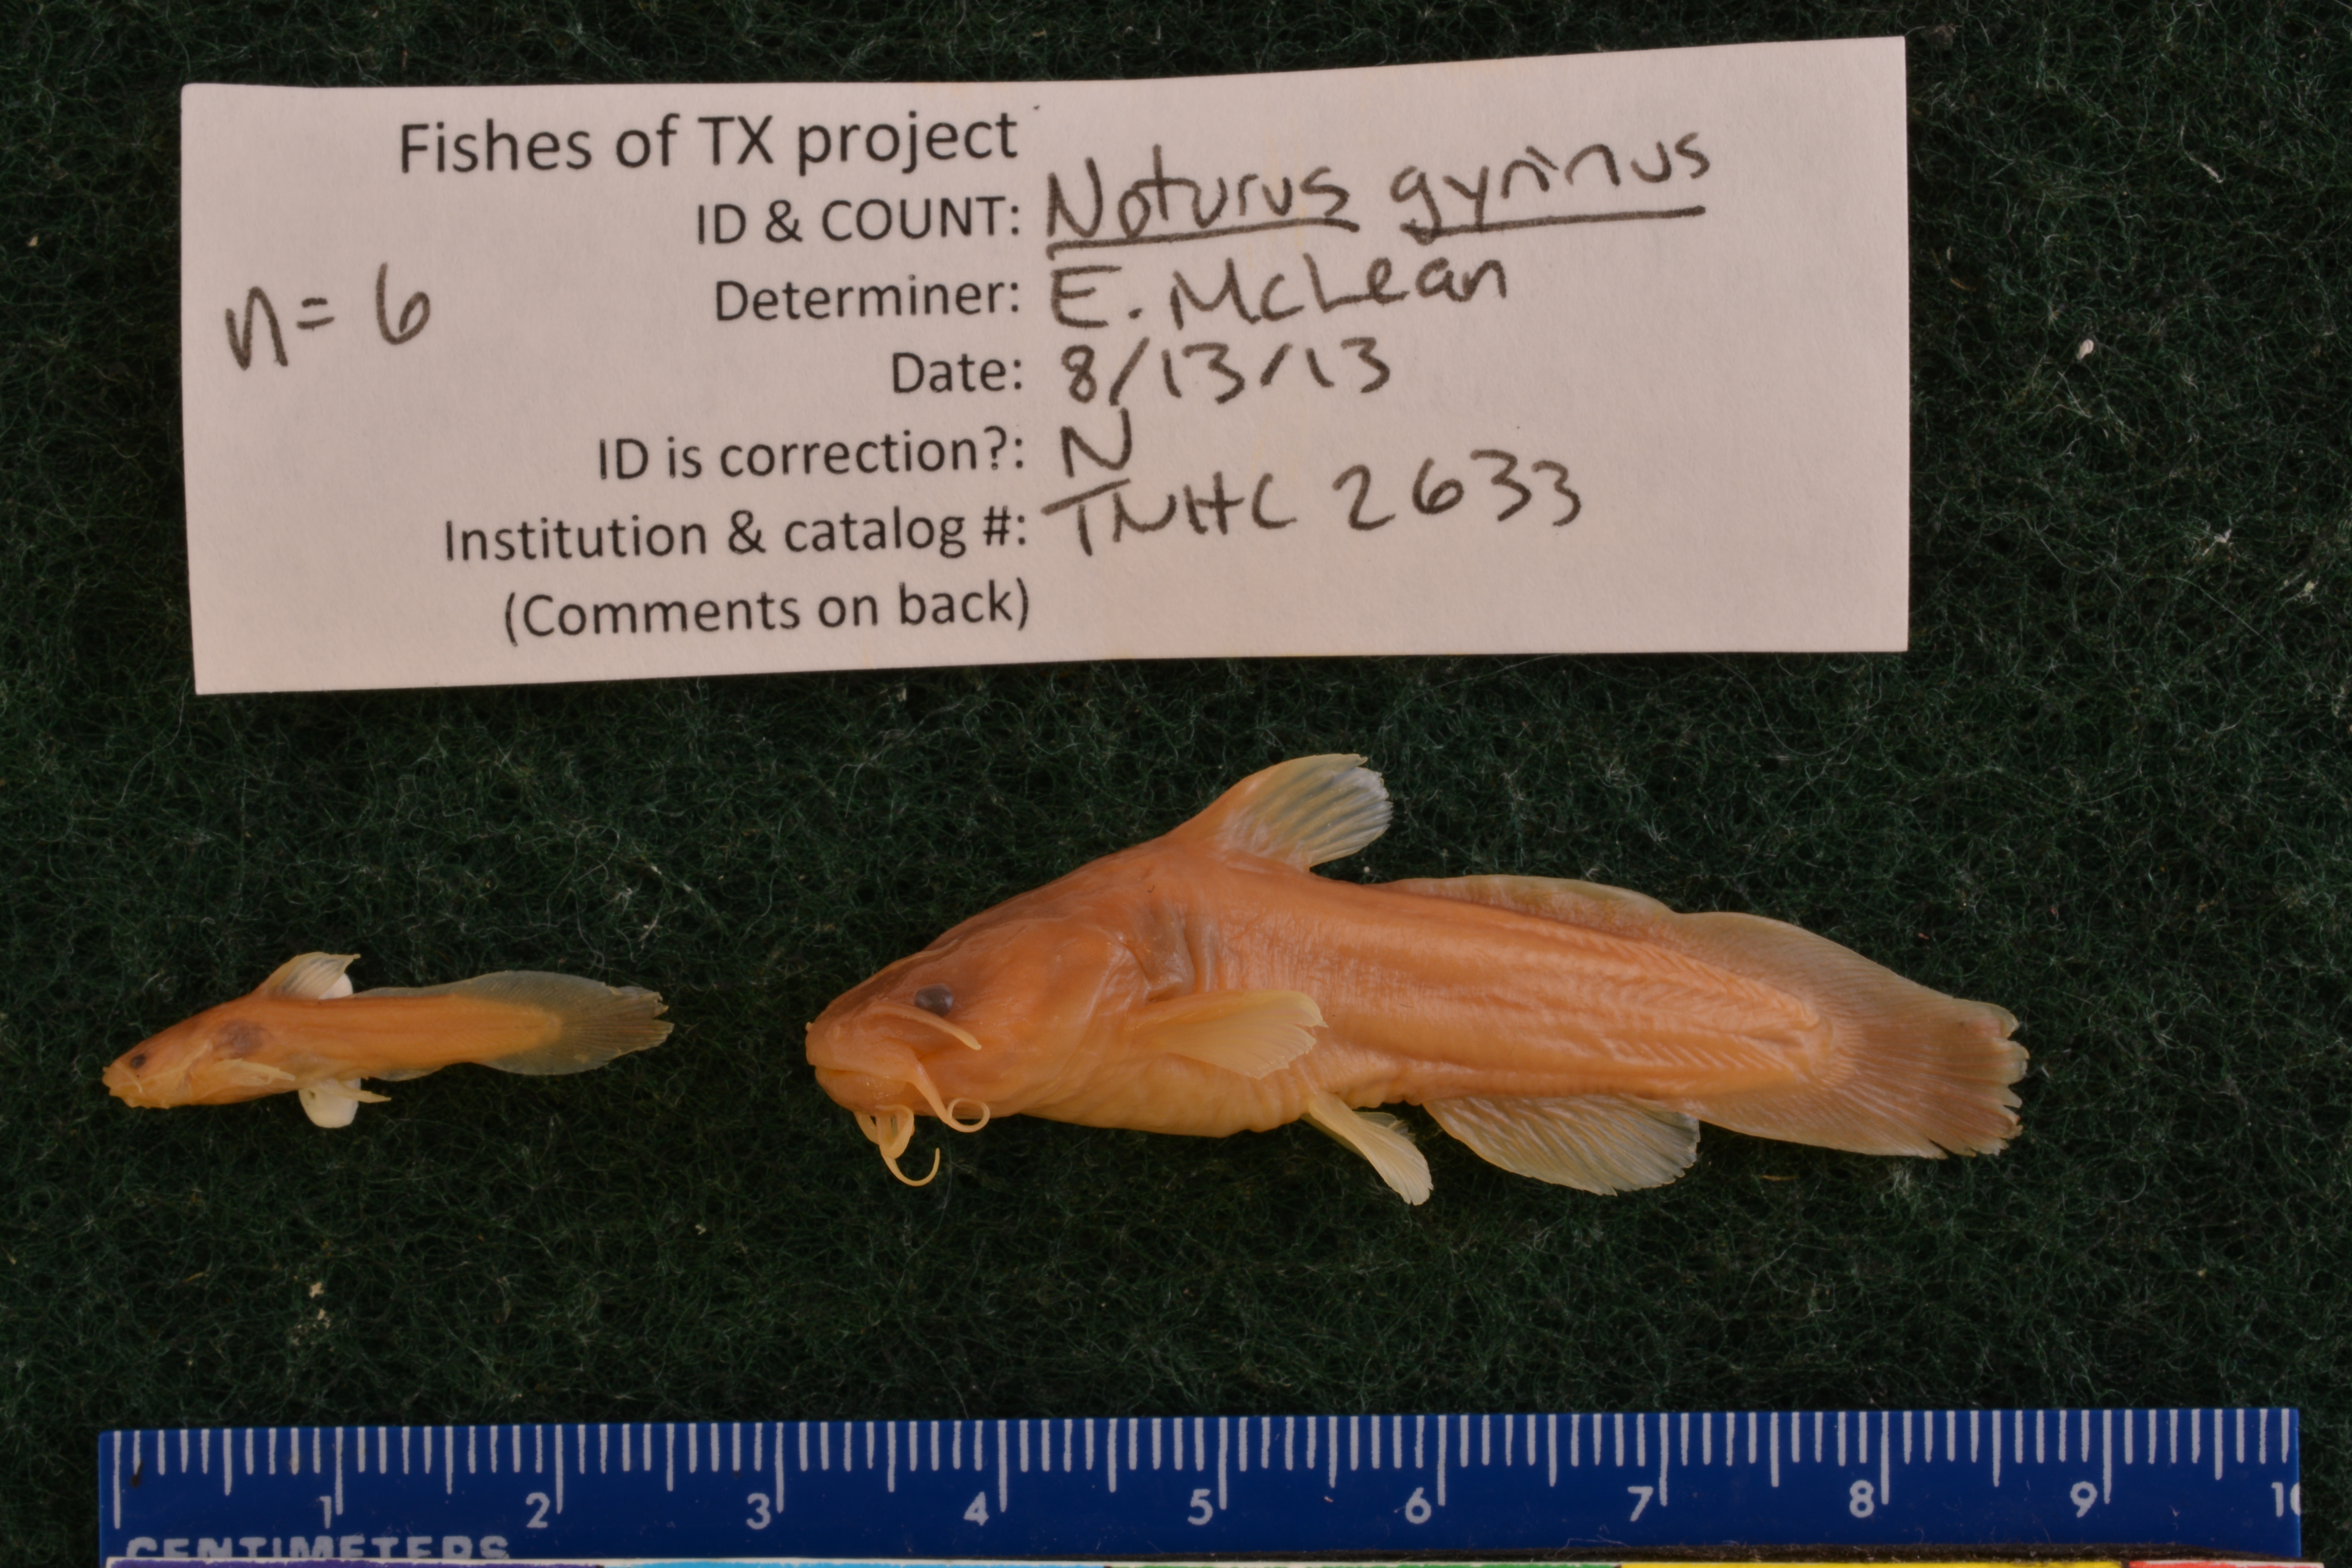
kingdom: Animalia
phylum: Chordata
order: Siluriformes
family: Ictaluridae
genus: Noturus
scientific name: Noturus gyrinus
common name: Tadpole madtom
